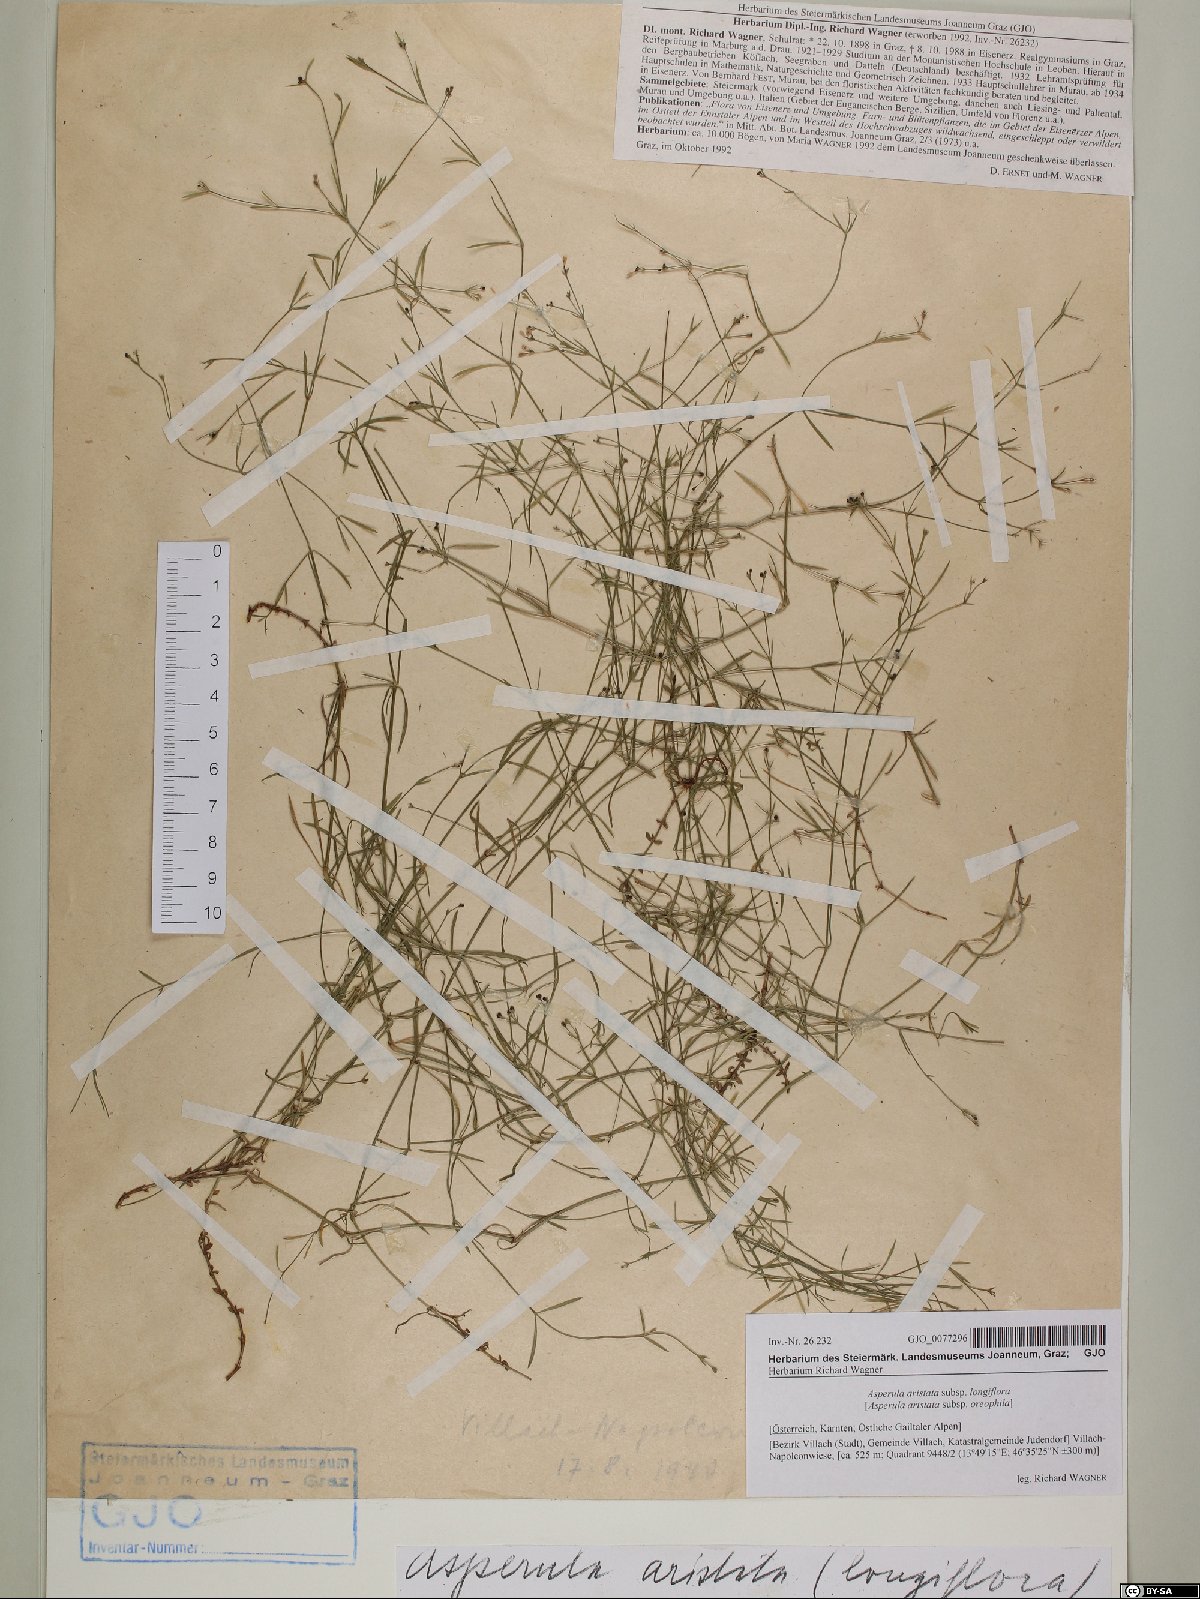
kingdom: Plantae
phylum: Tracheophyta
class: Magnoliopsida
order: Gentianales
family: Rubiaceae
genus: Cynanchica
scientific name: Cynanchica aristata
